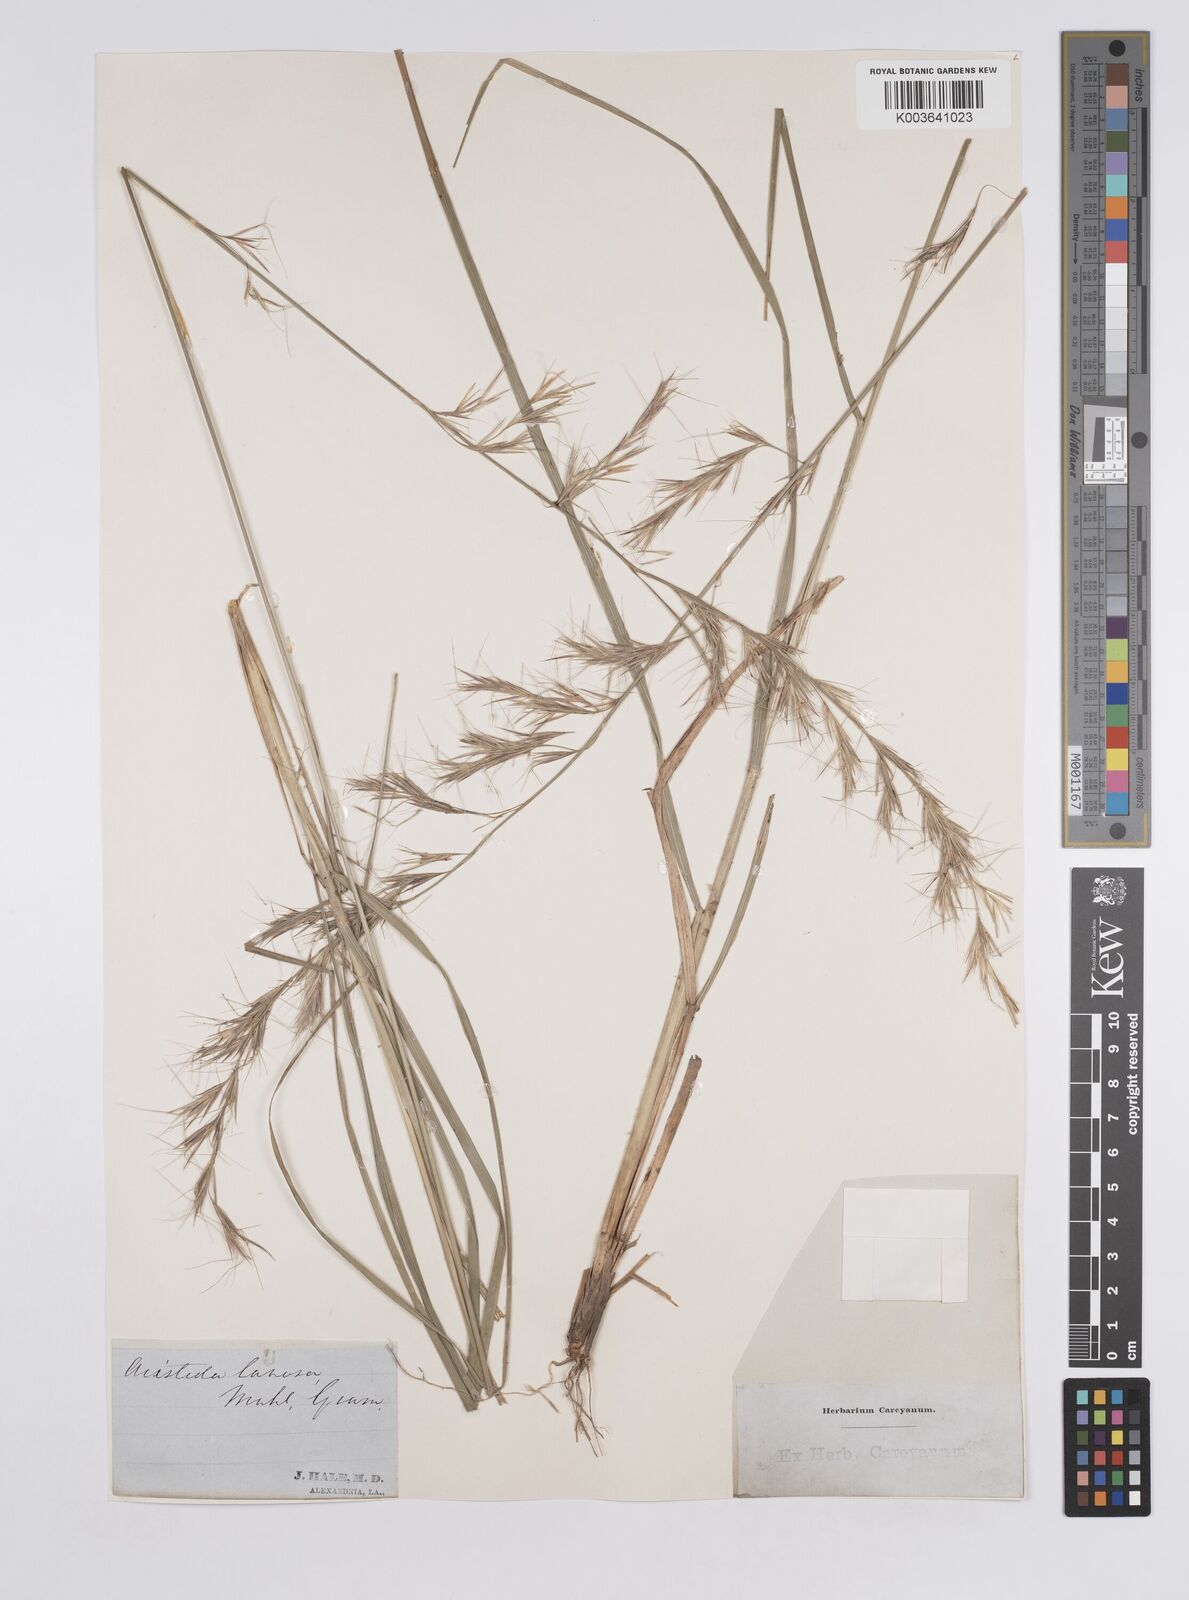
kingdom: Plantae
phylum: Tracheophyta
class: Liliopsida
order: Poales
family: Poaceae
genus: Aristida
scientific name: Aristida lanosa
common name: Woolly three-awn
